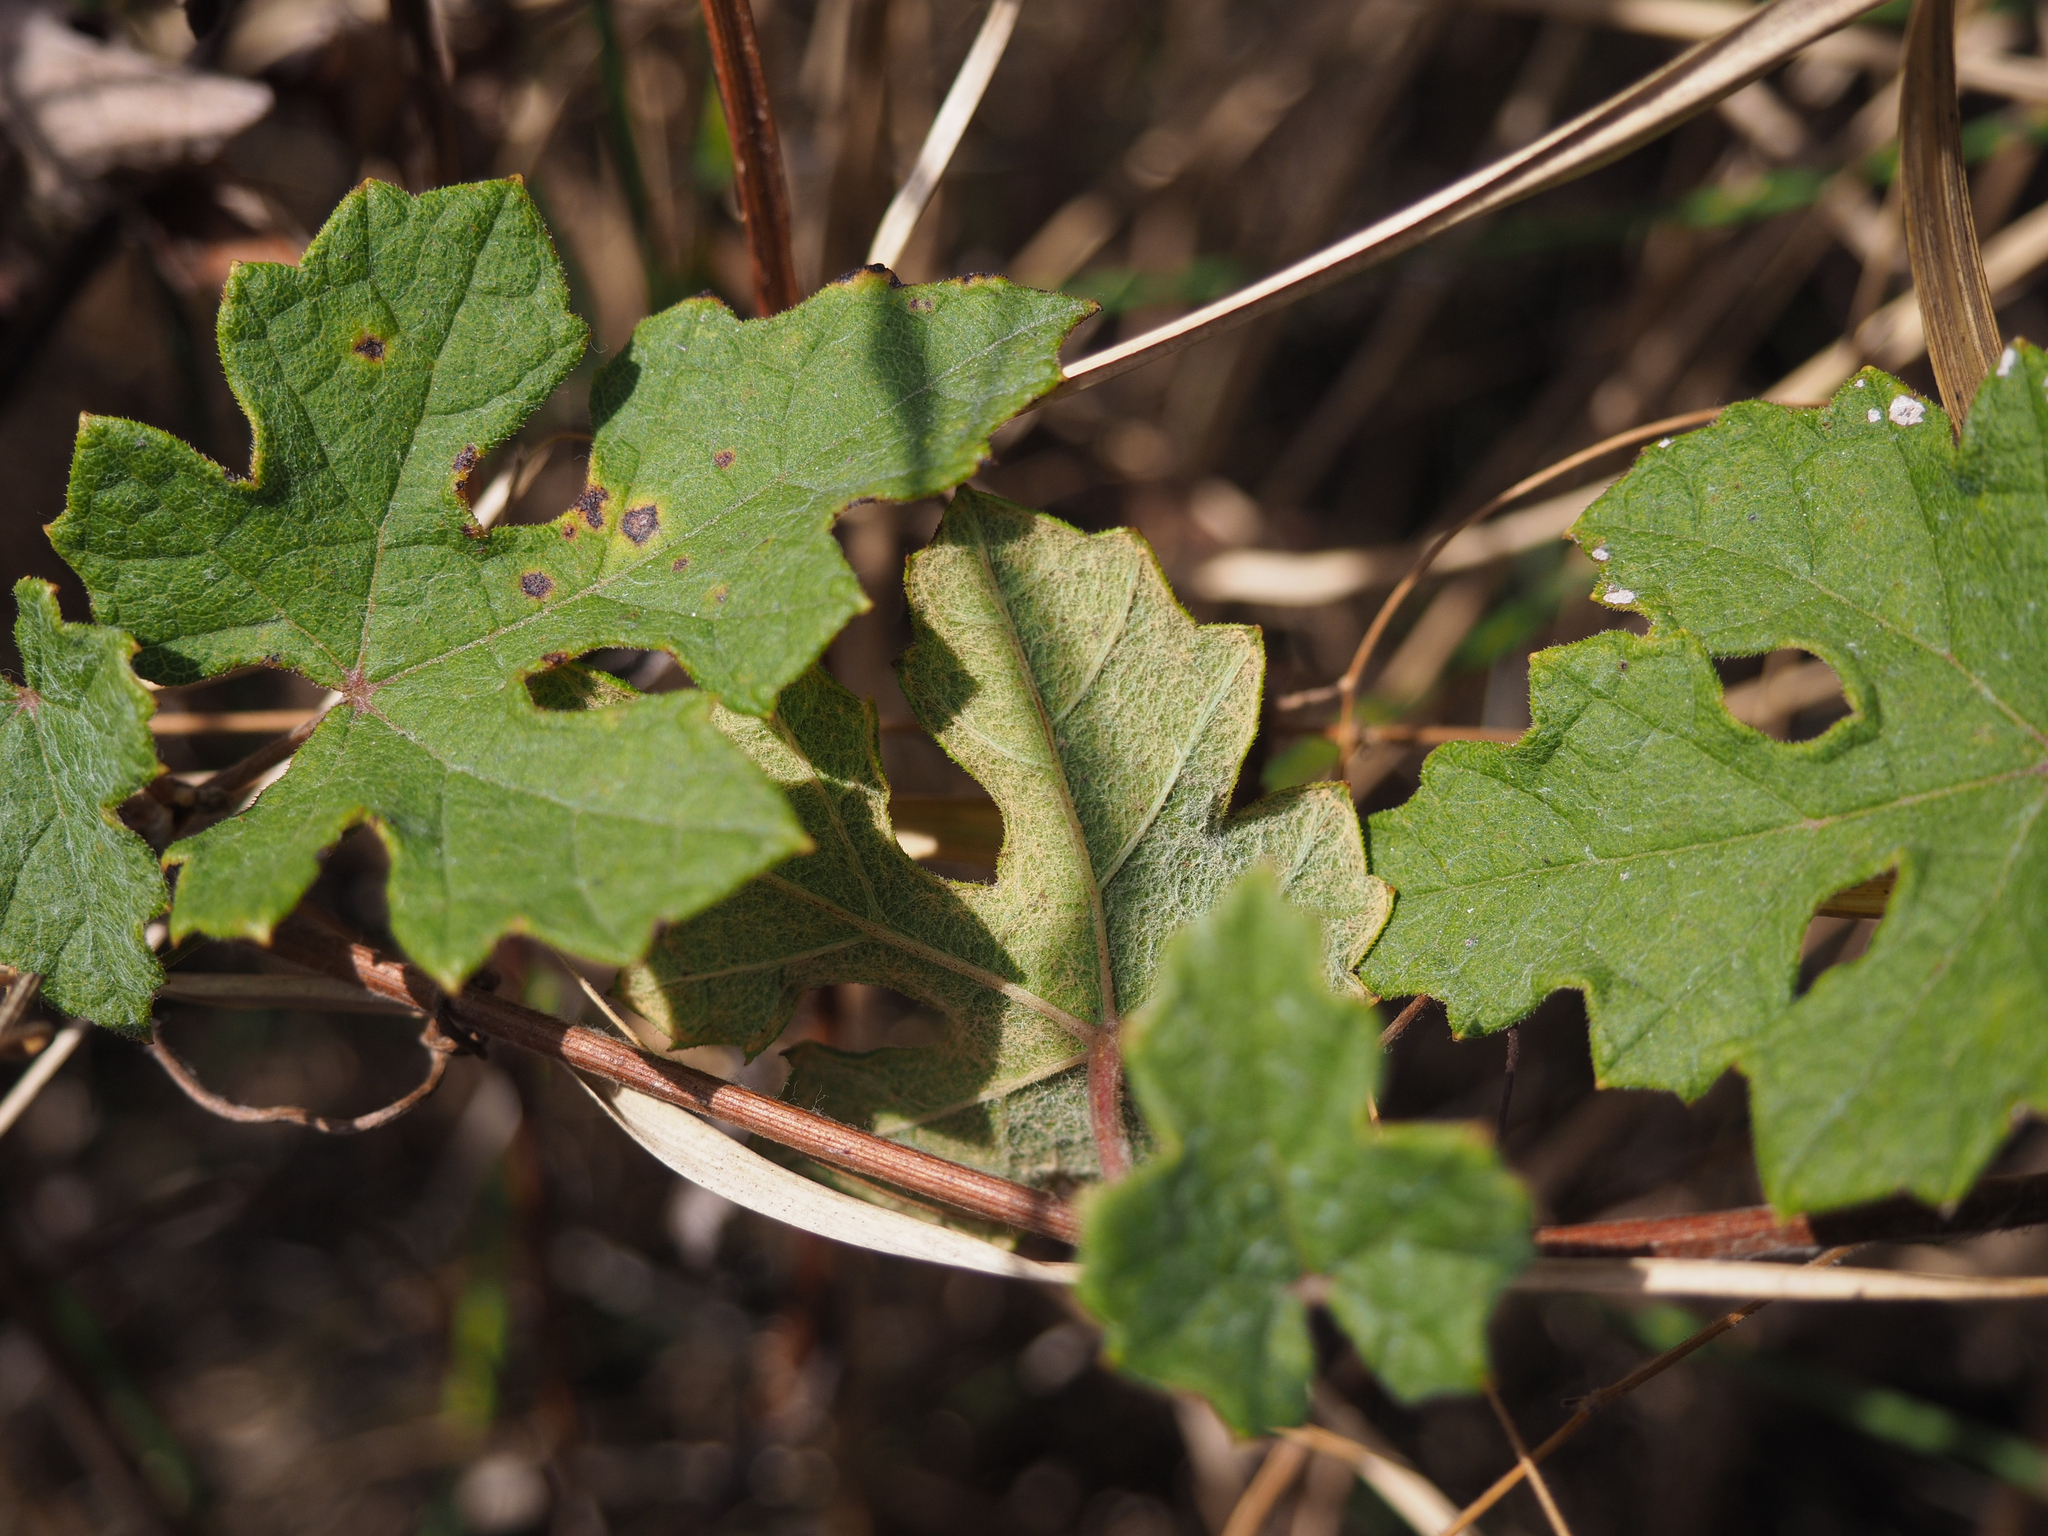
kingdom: Plantae
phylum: Tracheophyta
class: Magnoliopsida
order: Vitales
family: Vitaceae
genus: Vitis
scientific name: Vitis sinocinerea
